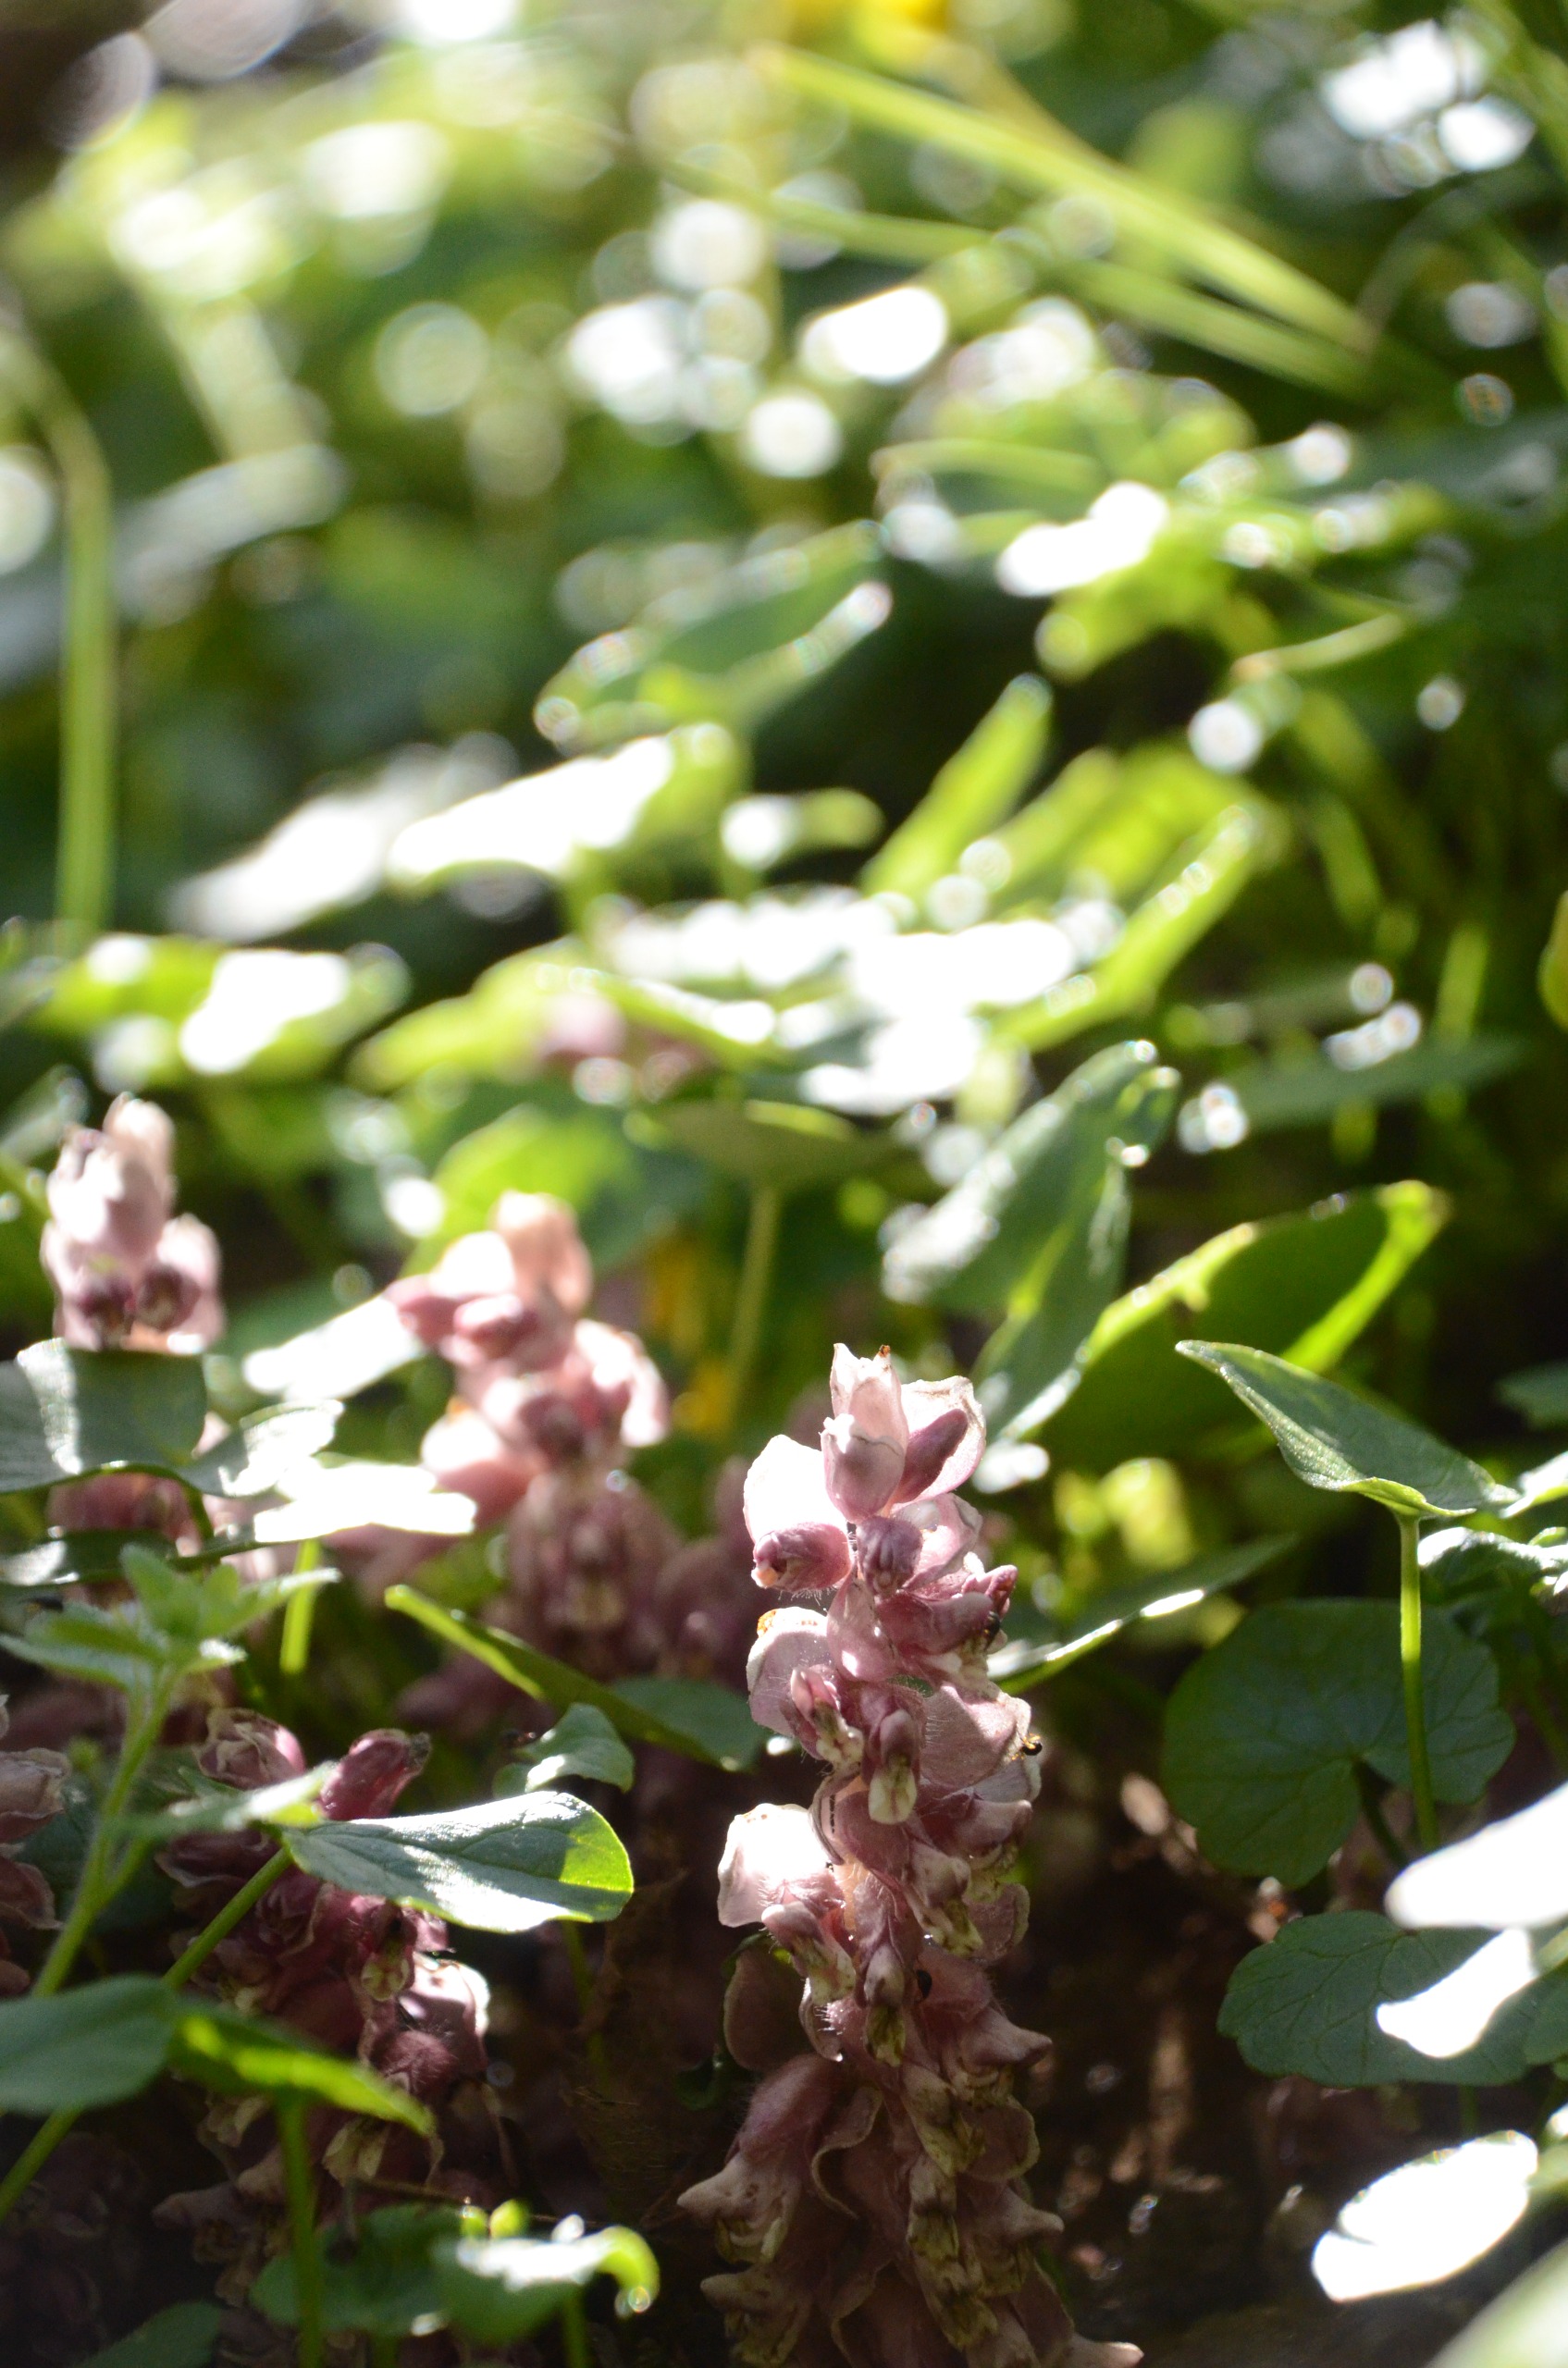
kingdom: Plantae
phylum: Tracheophyta
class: Magnoliopsida
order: Lamiales
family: Orobanchaceae
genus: Lathraea
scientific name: Lathraea squamaria
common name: Skælrod
